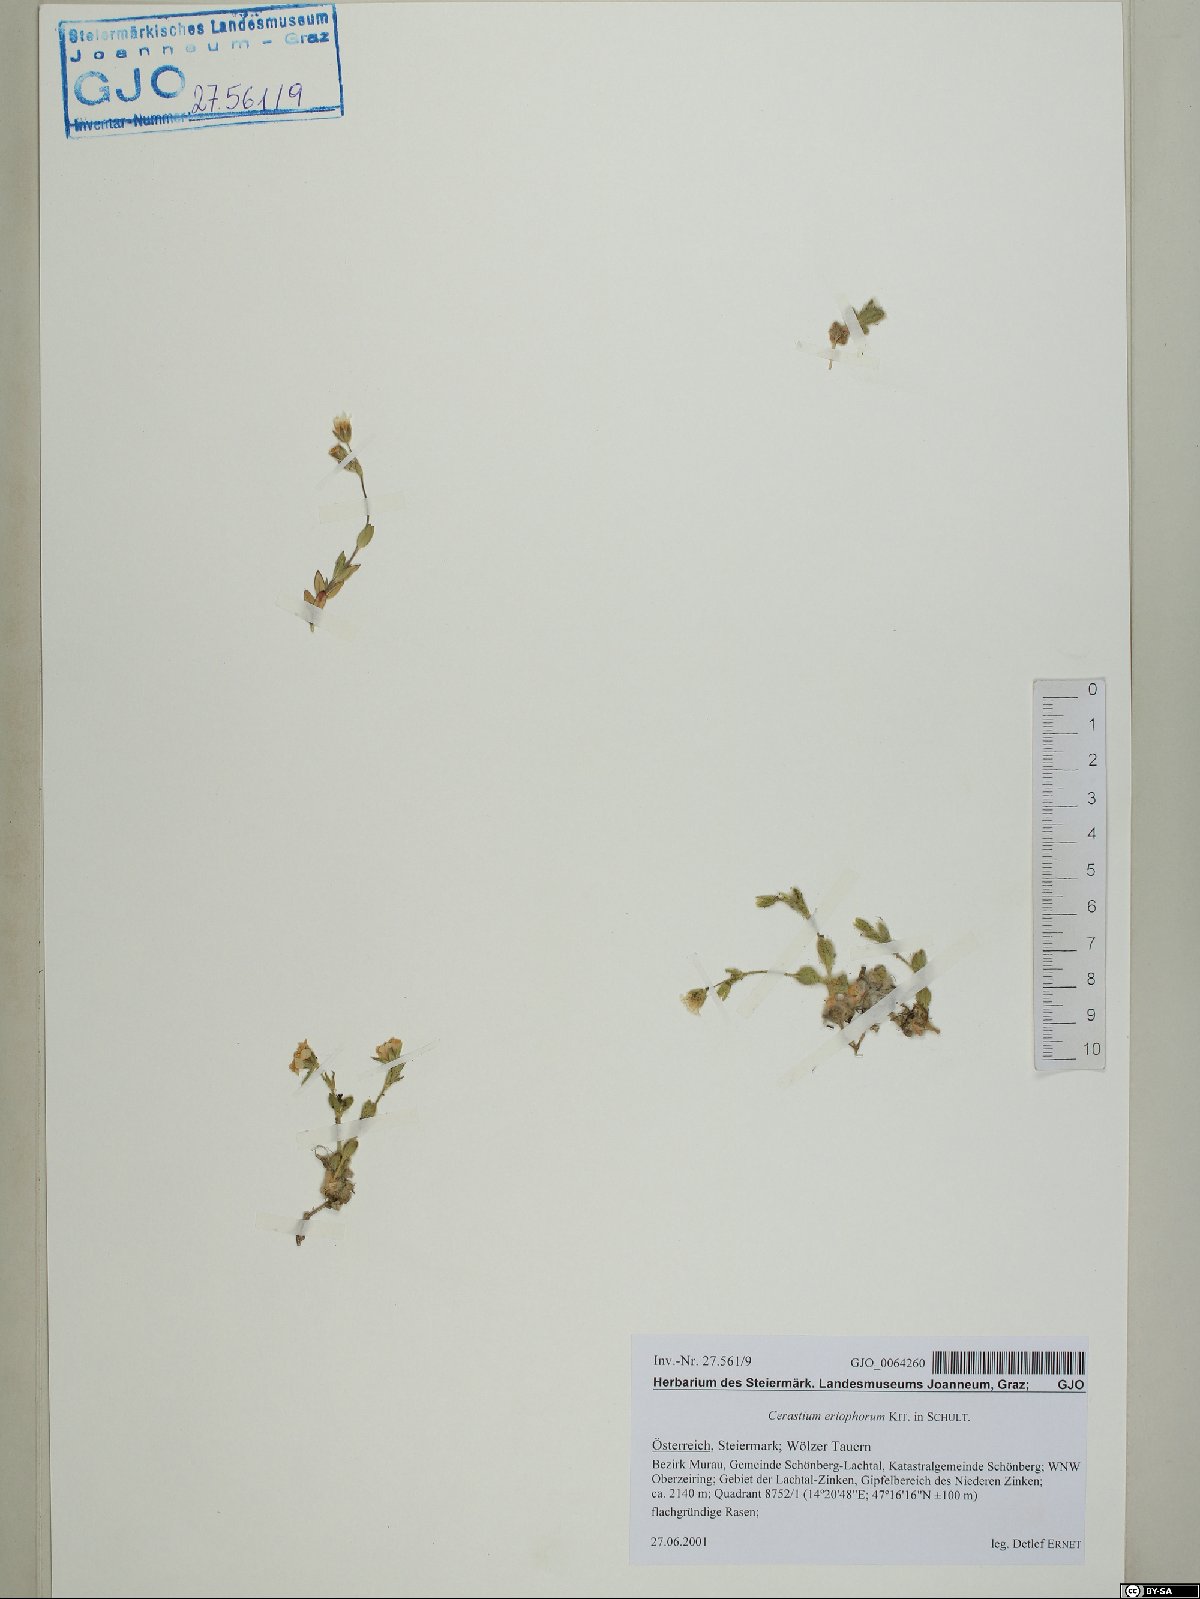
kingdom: Plantae
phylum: Tracheophyta
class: Magnoliopsida
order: Caryophyllales
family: Caryophyllaceae
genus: Cerastium
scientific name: Cerastium eriophorum
